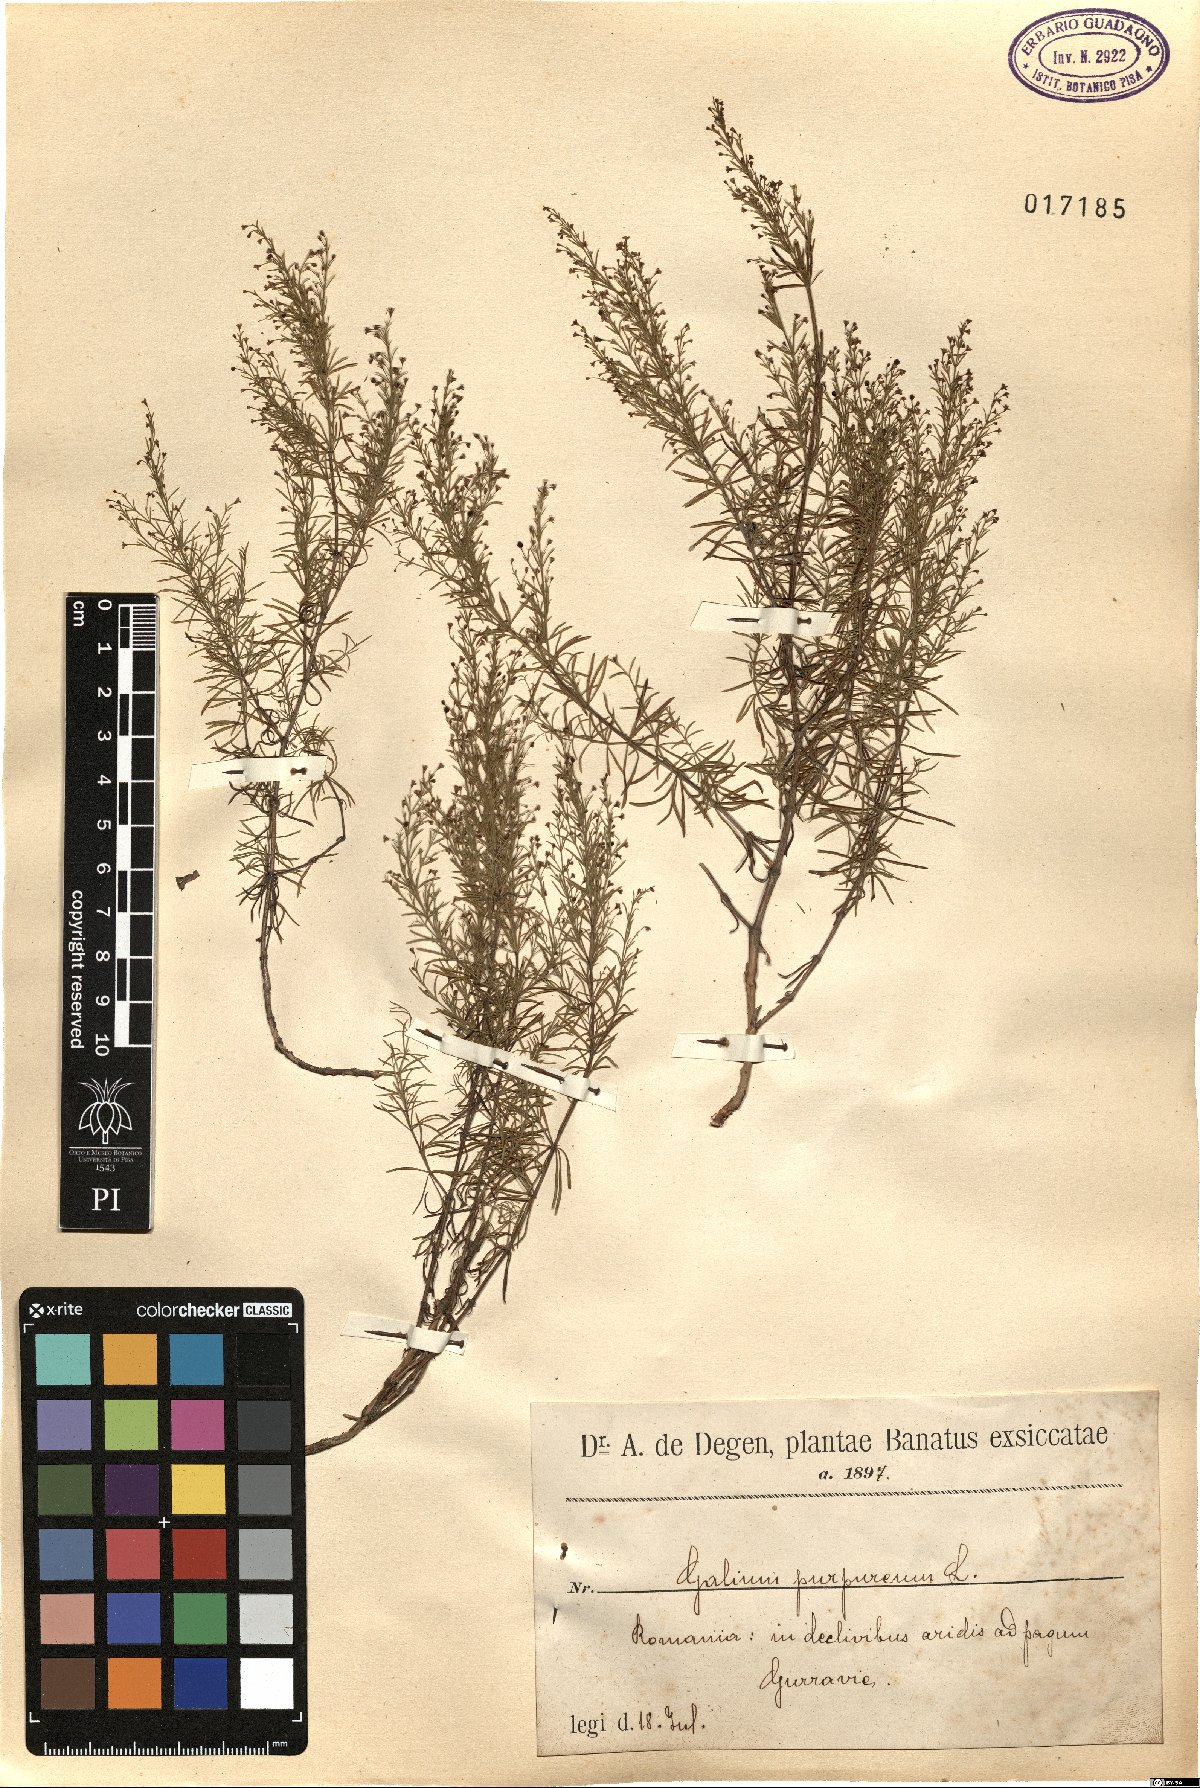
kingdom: Plantae
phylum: Tracheophyta
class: Magnoliopsida
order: Gentianales
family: Rubiaceae
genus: Thliphthisa
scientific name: Thliphthisa purpurea
